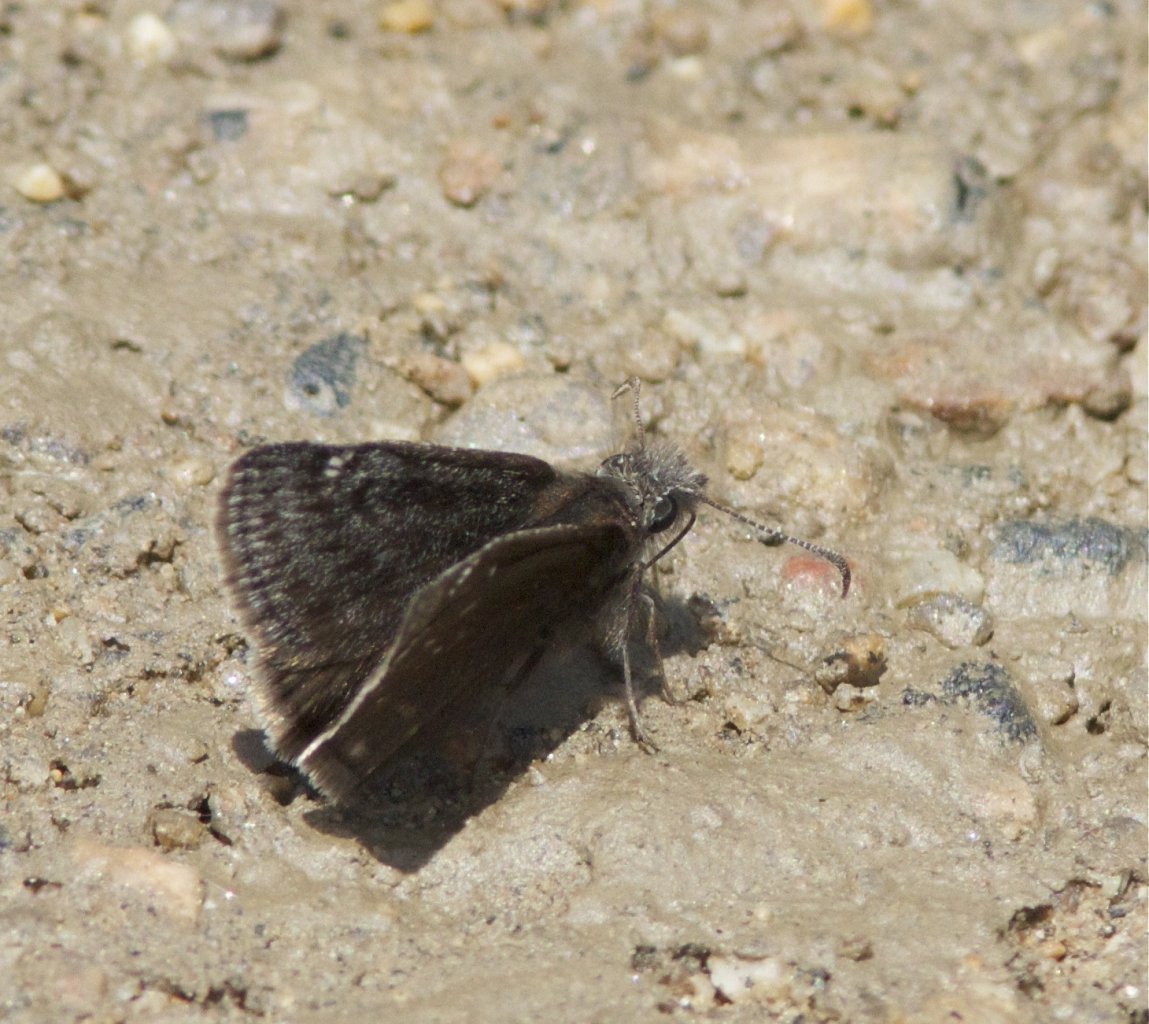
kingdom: Animalia
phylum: Arthropoda
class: Insecta
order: Lepidoptera
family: Hesperiidae
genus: Gesta
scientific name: Gesta
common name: Persius Duskywing
